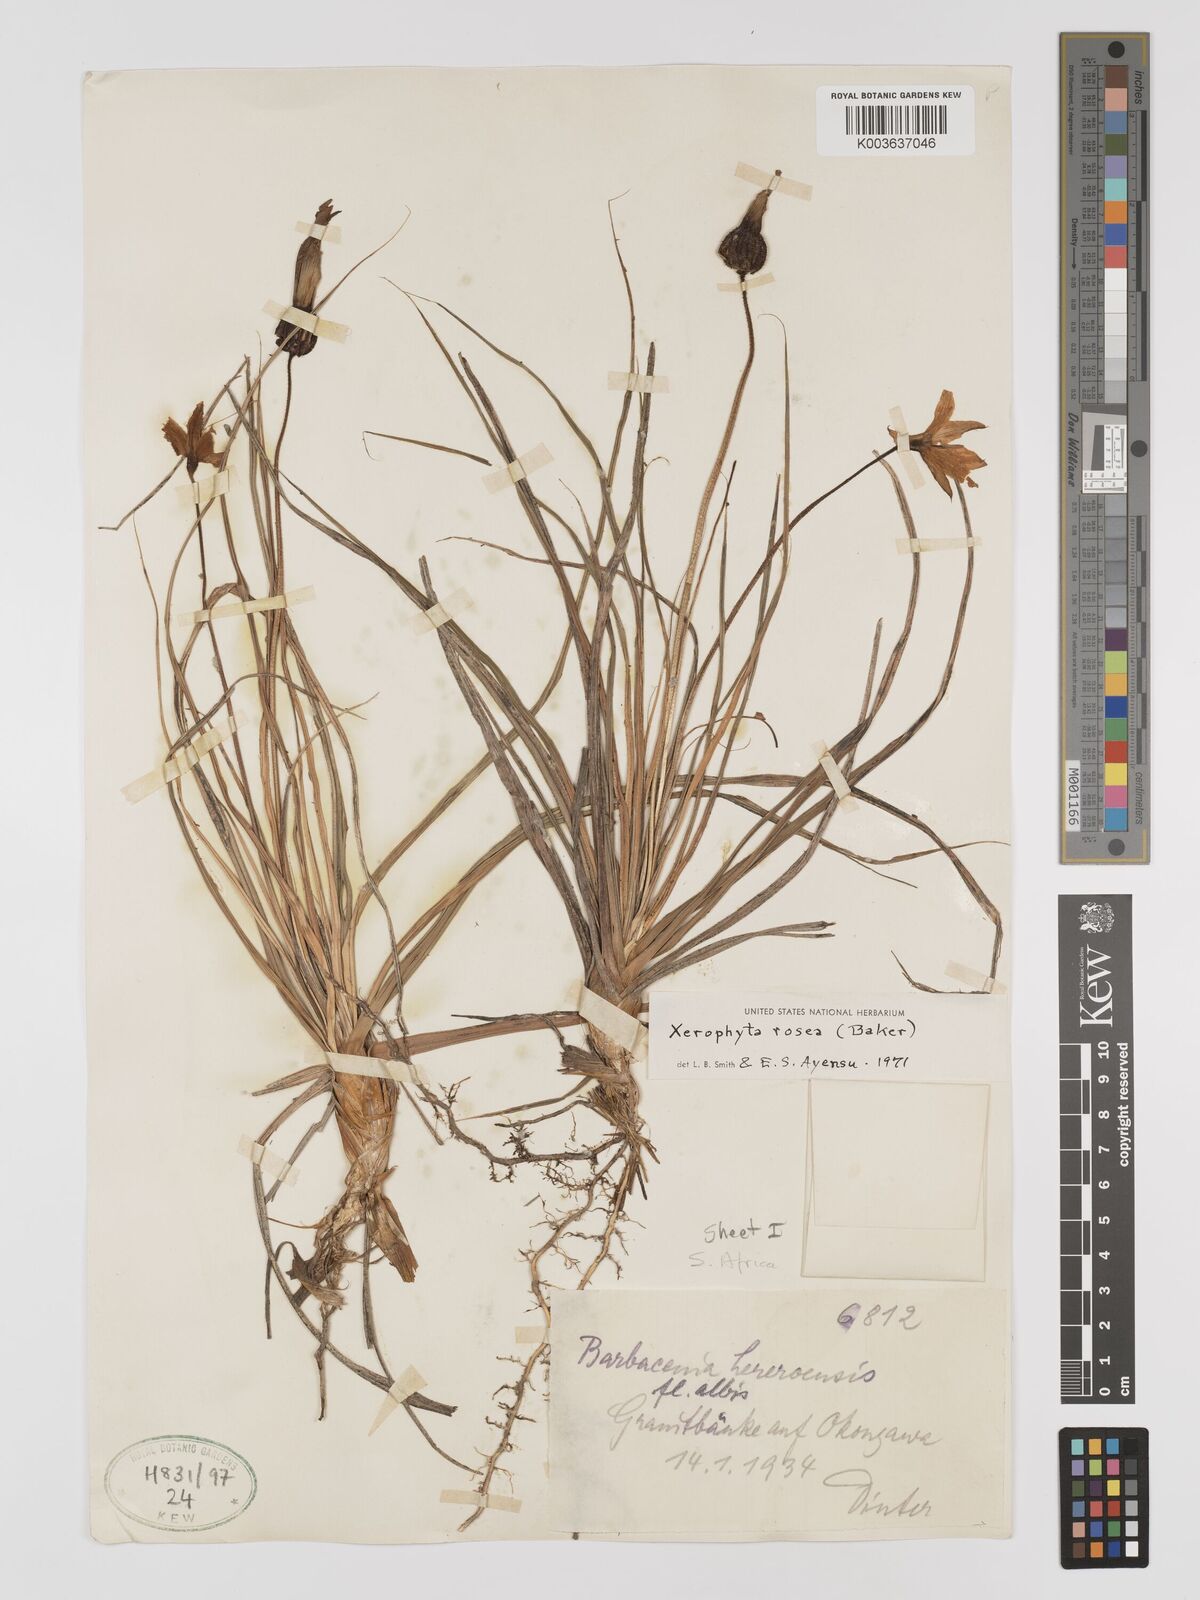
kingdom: Plantae
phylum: Tracheophyta
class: Liliopsida
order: Pandanales
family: Velloziaceae
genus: Xerophyta
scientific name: Xerophyta rosea
